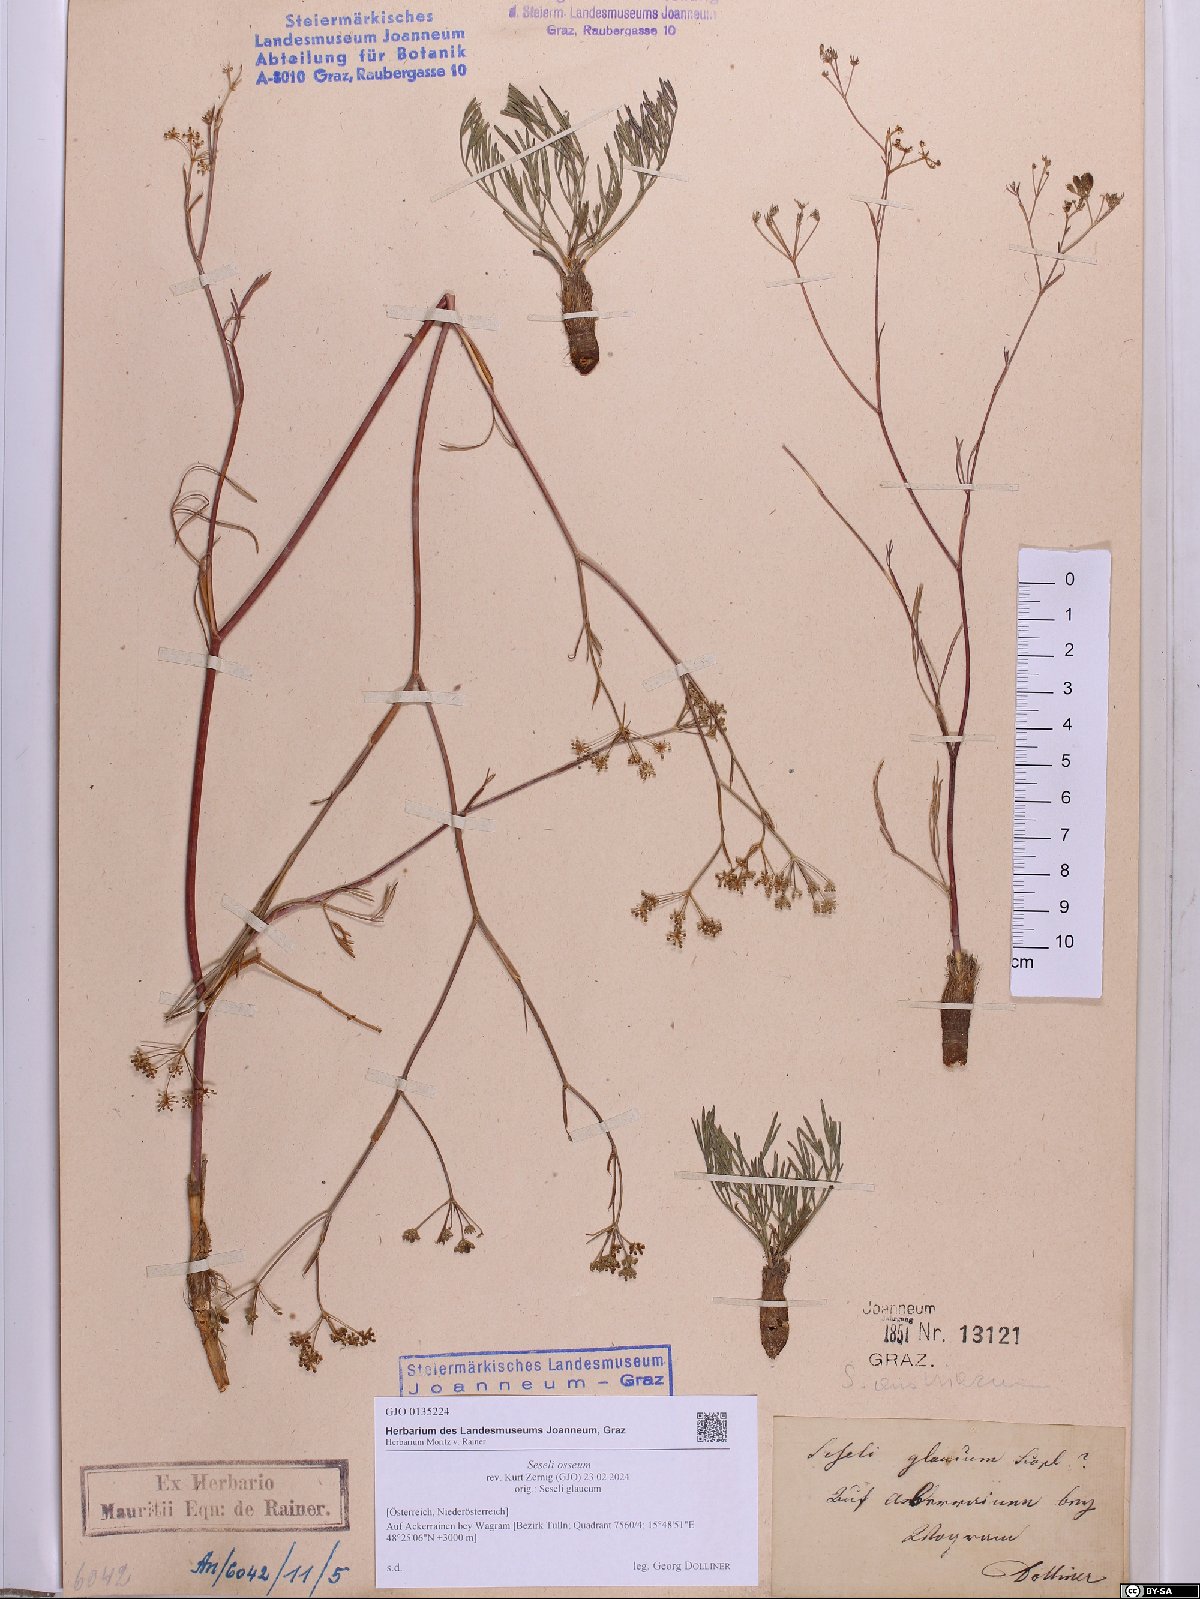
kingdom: Plantae
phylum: Tracheophyta
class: Magnoliopsida
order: Apiales
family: Apiaceae
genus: Seseli
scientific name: Seseli osseum
